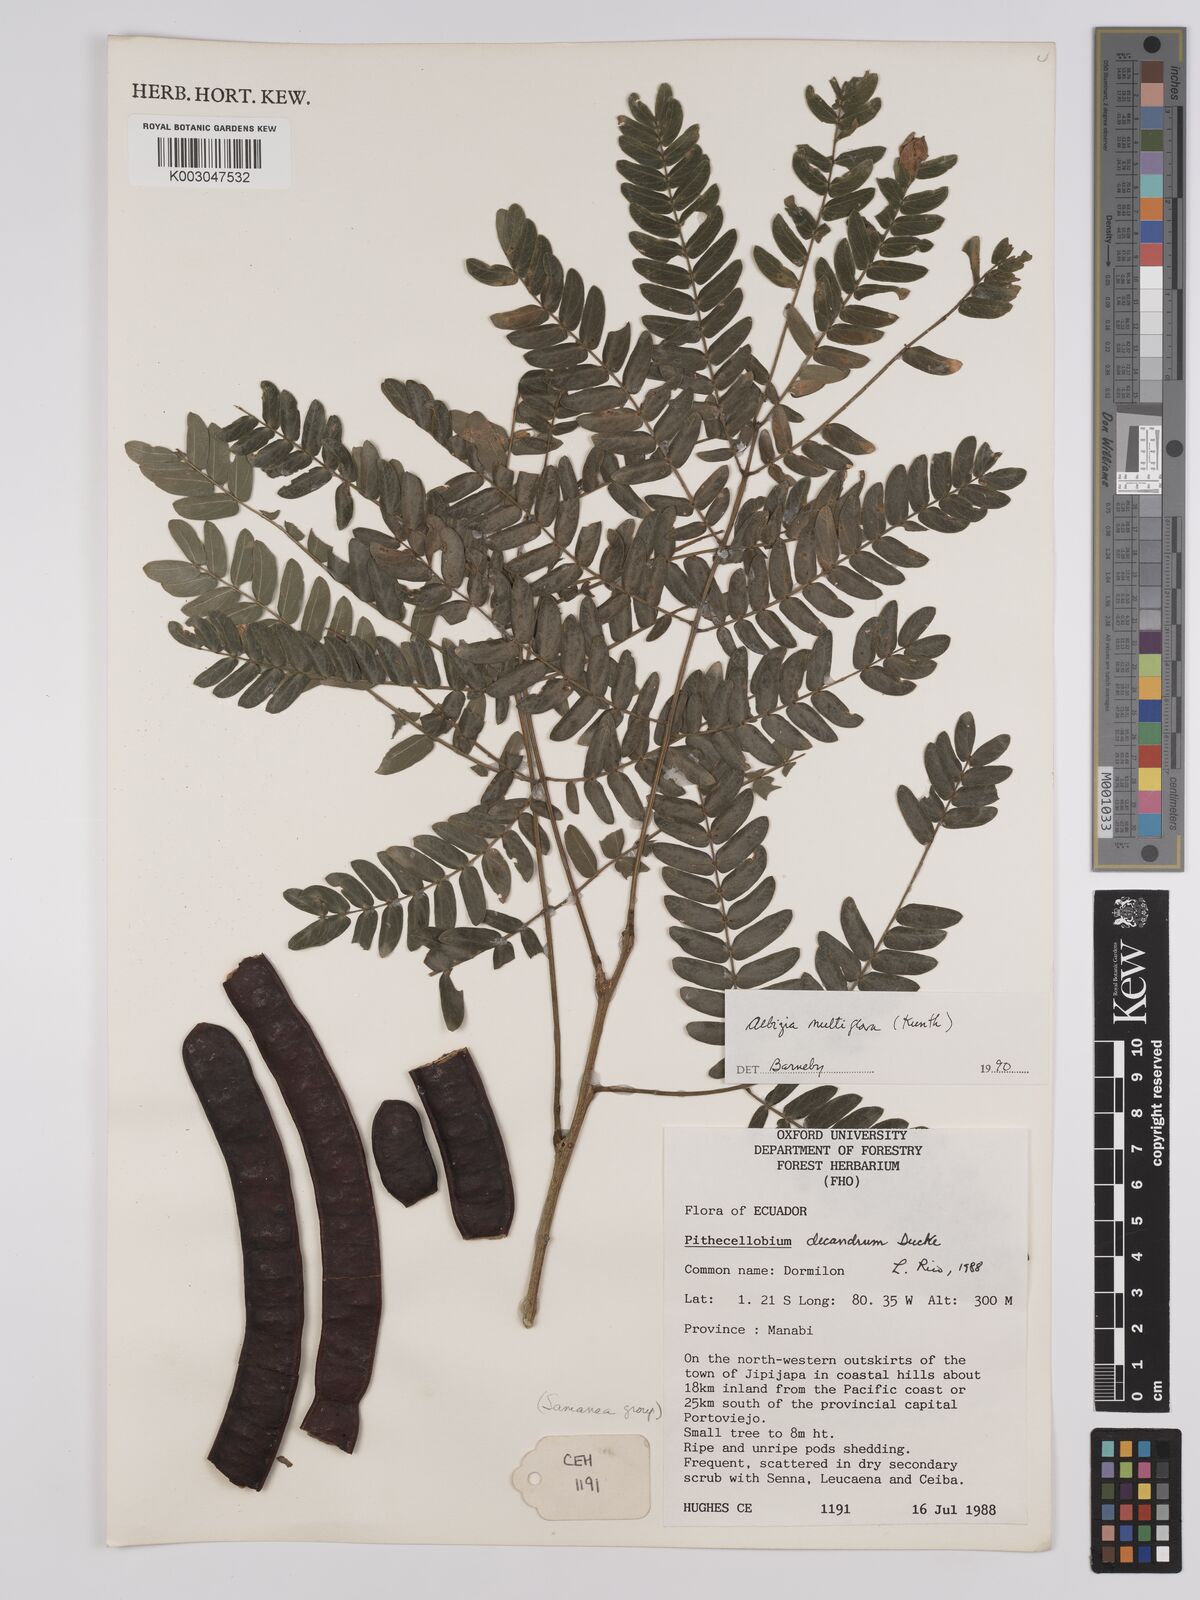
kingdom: Plantae
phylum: Tracheophyta
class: Magnoliopsida
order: Fabales
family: Fabaceae
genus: Albizia
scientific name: Albizia multiflora
